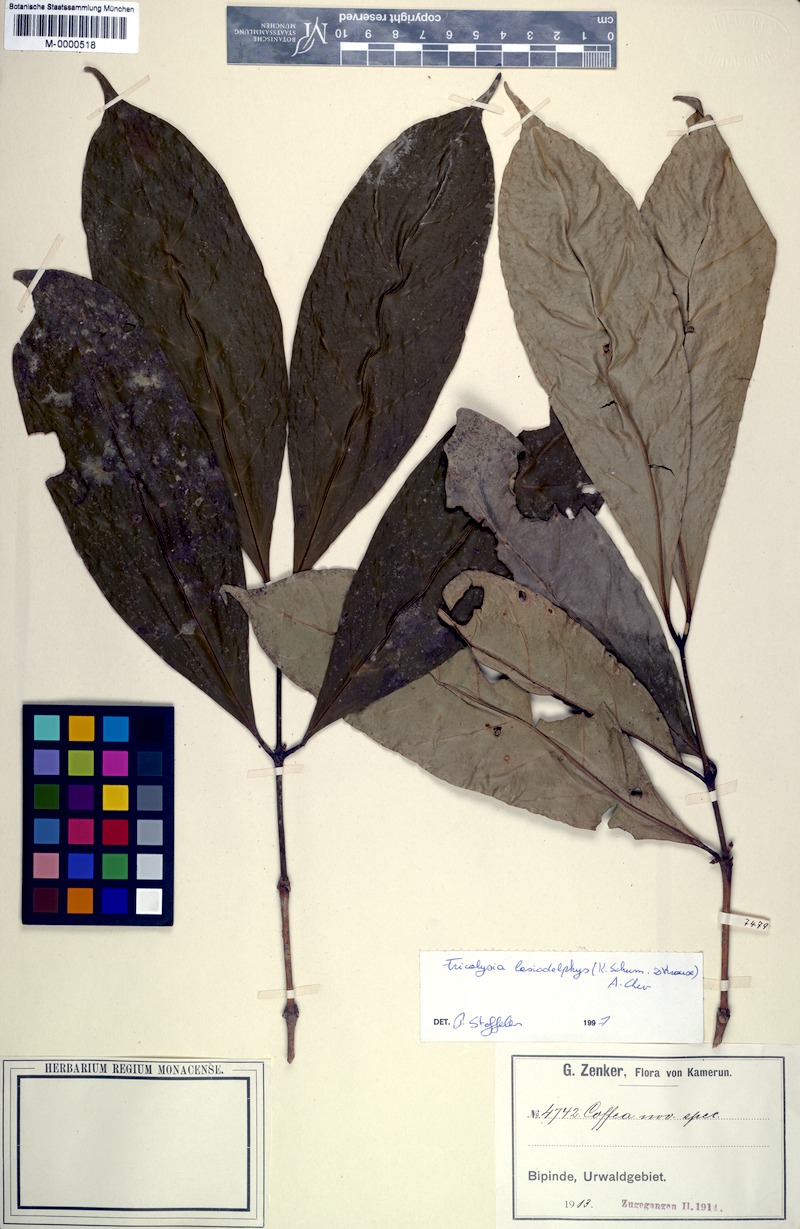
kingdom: Plantae
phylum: Tracheophyta
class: Magnoliopsida
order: Gentianales
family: Rubiaceae
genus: Tricalysia
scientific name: Tricalysia lasiodelphys
